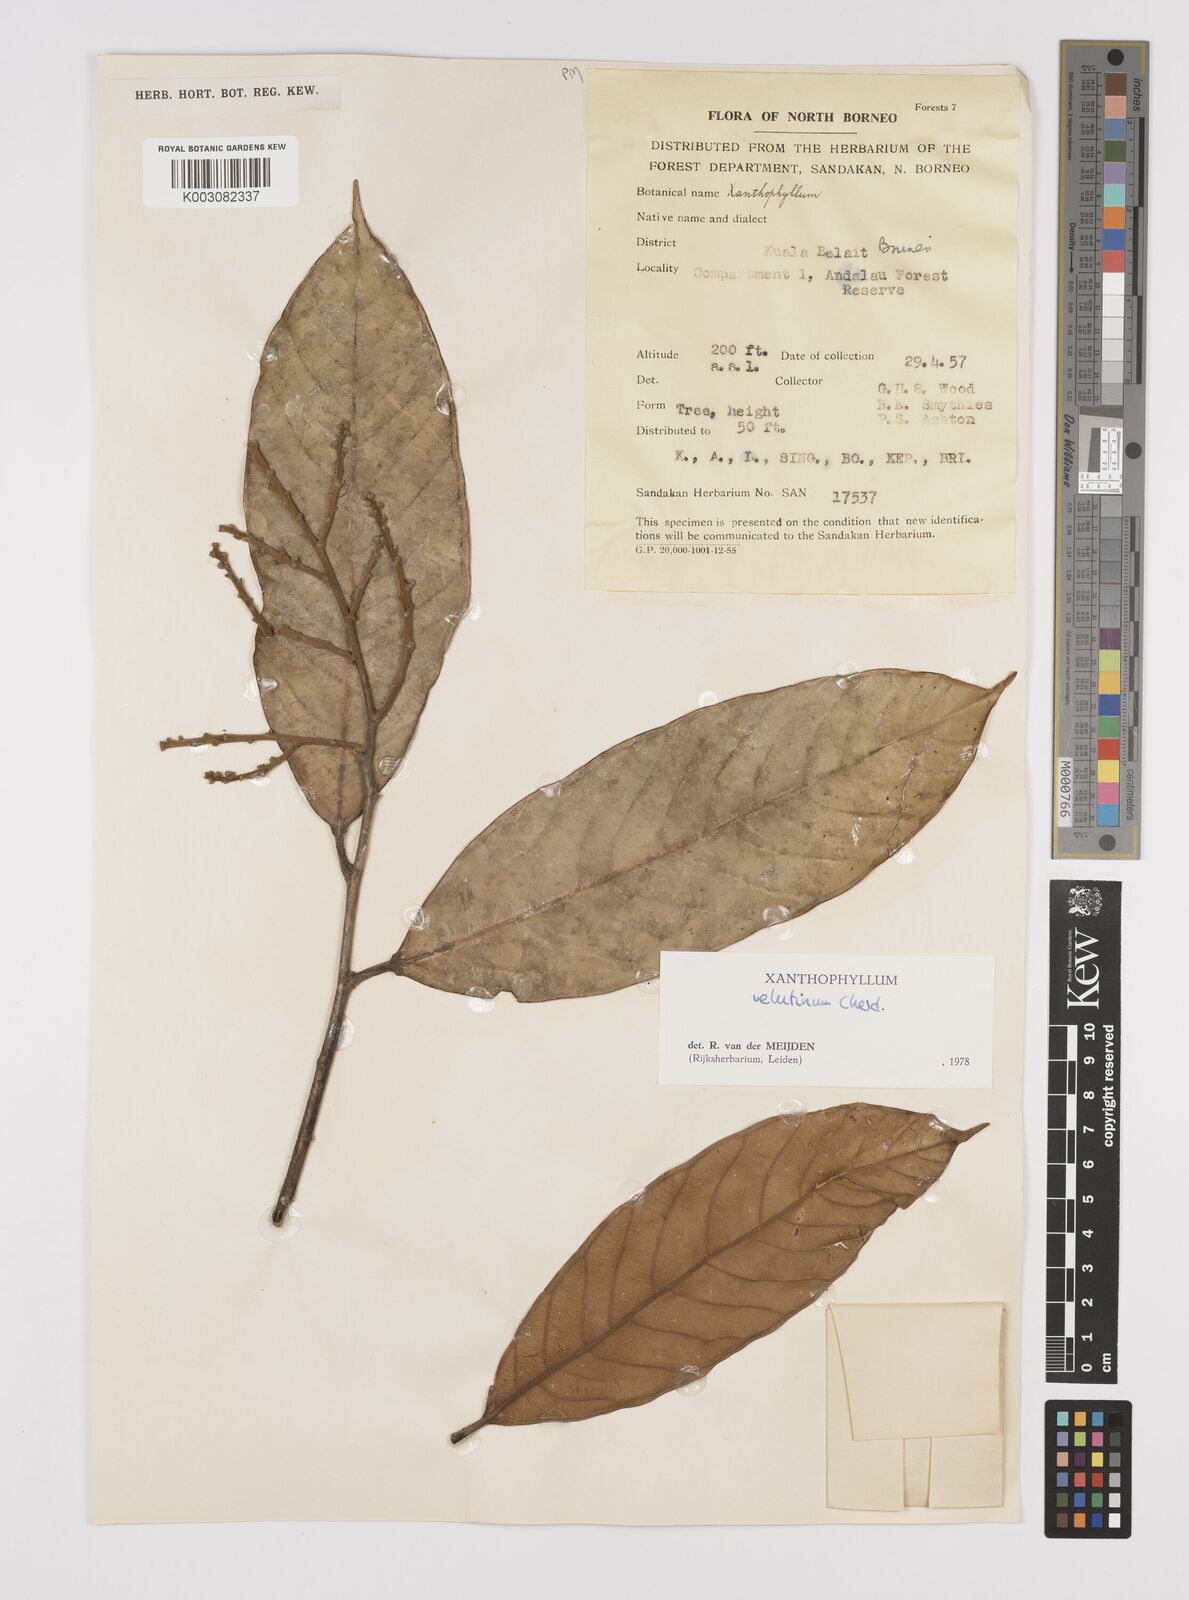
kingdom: Plantae
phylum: Tracheophyta
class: Magnoliopsida
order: Fabales
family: Polygalaceae
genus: Xanthophyllum
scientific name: Xanthophyllum velutinum
